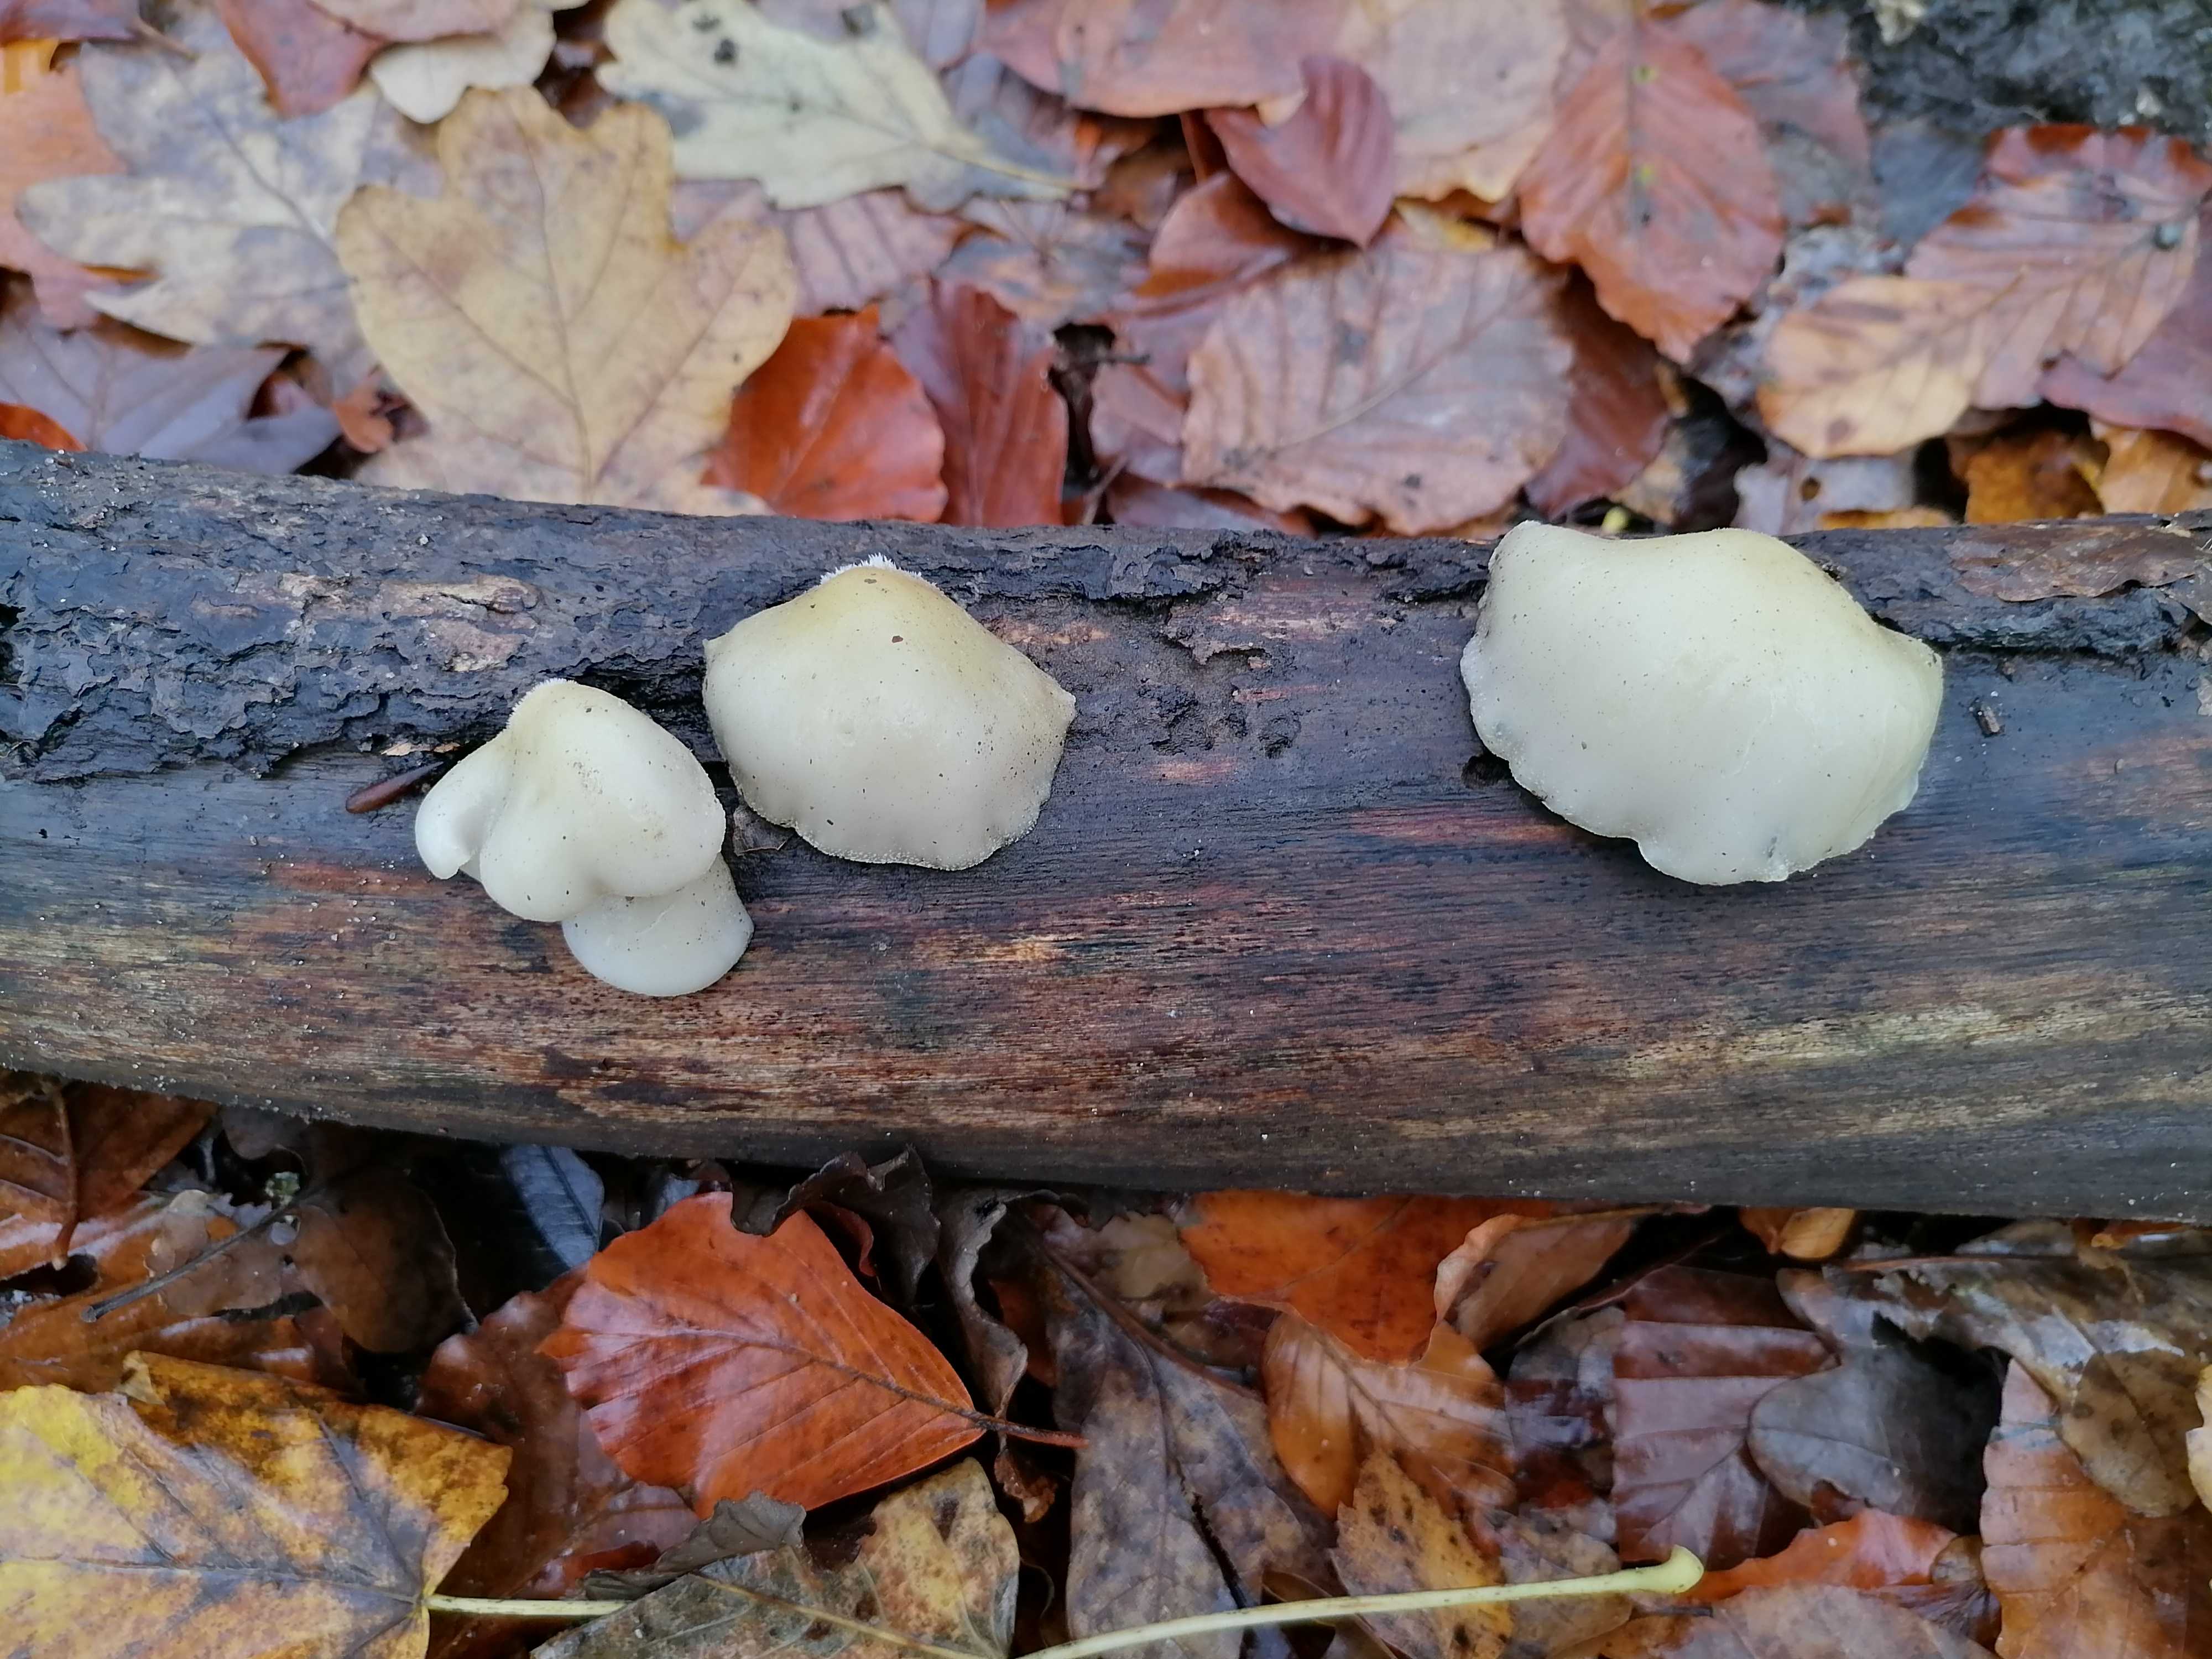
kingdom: Fungi
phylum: Basidiomycota
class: Agaricomycetes
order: Agaricales
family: Crepidotaceae
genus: Crepidotus
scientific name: Crepidotus mollis
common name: blød muslingesvamp
